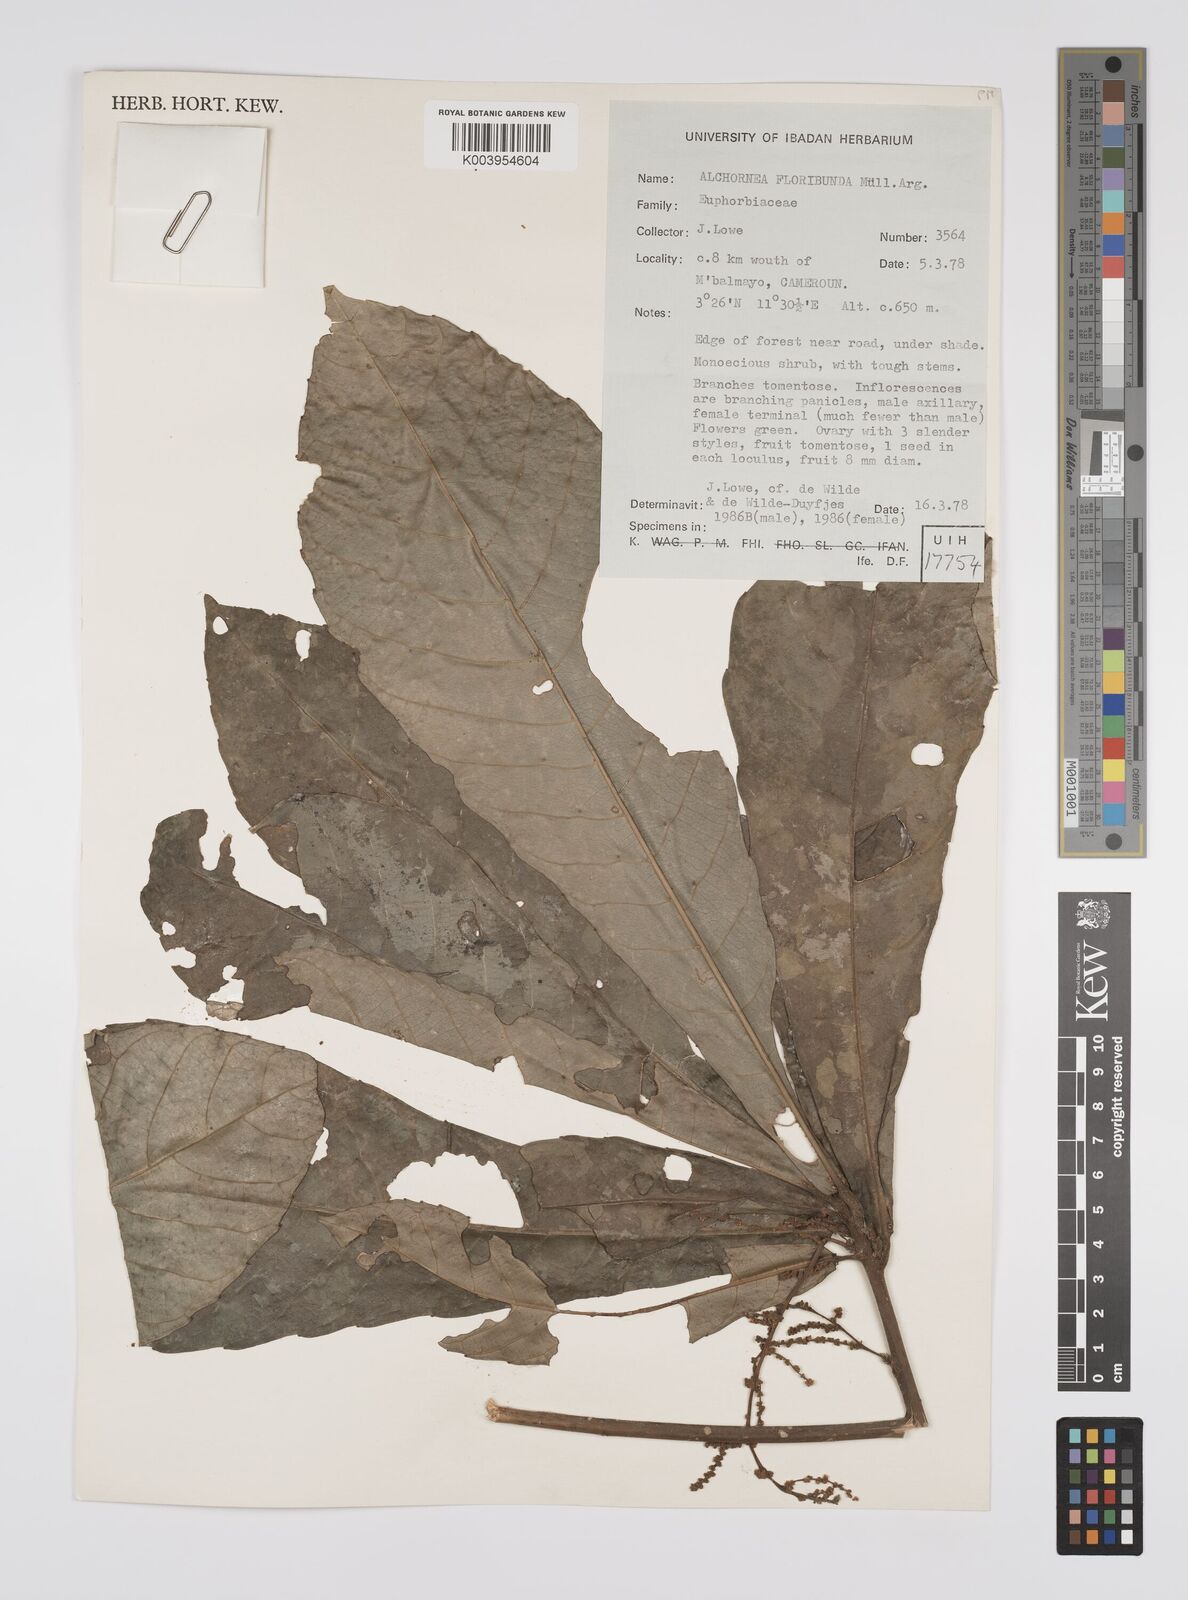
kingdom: Plantae
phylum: Tracheophyta
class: Magnoliopsida
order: Malpighiales
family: Euphorbiaceae
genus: Alchornea
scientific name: Alchornea floribunda
